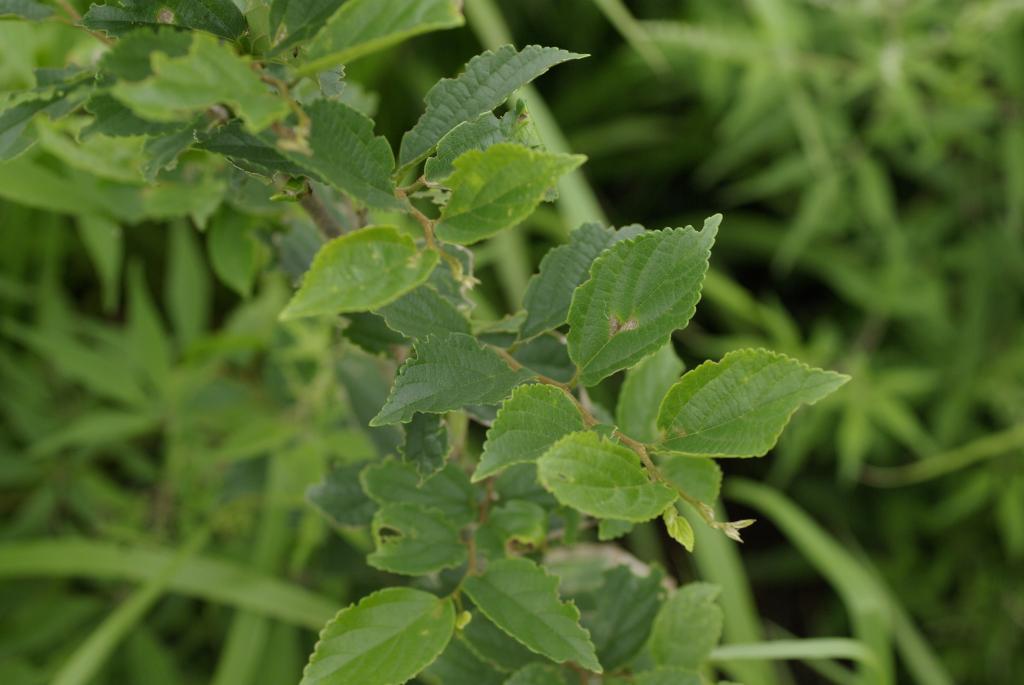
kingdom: Plantae
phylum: Tracheophyta
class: Magnoliopsida
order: Rosales
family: Cannabaceae
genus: Celtis
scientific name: Celtis sinensis
